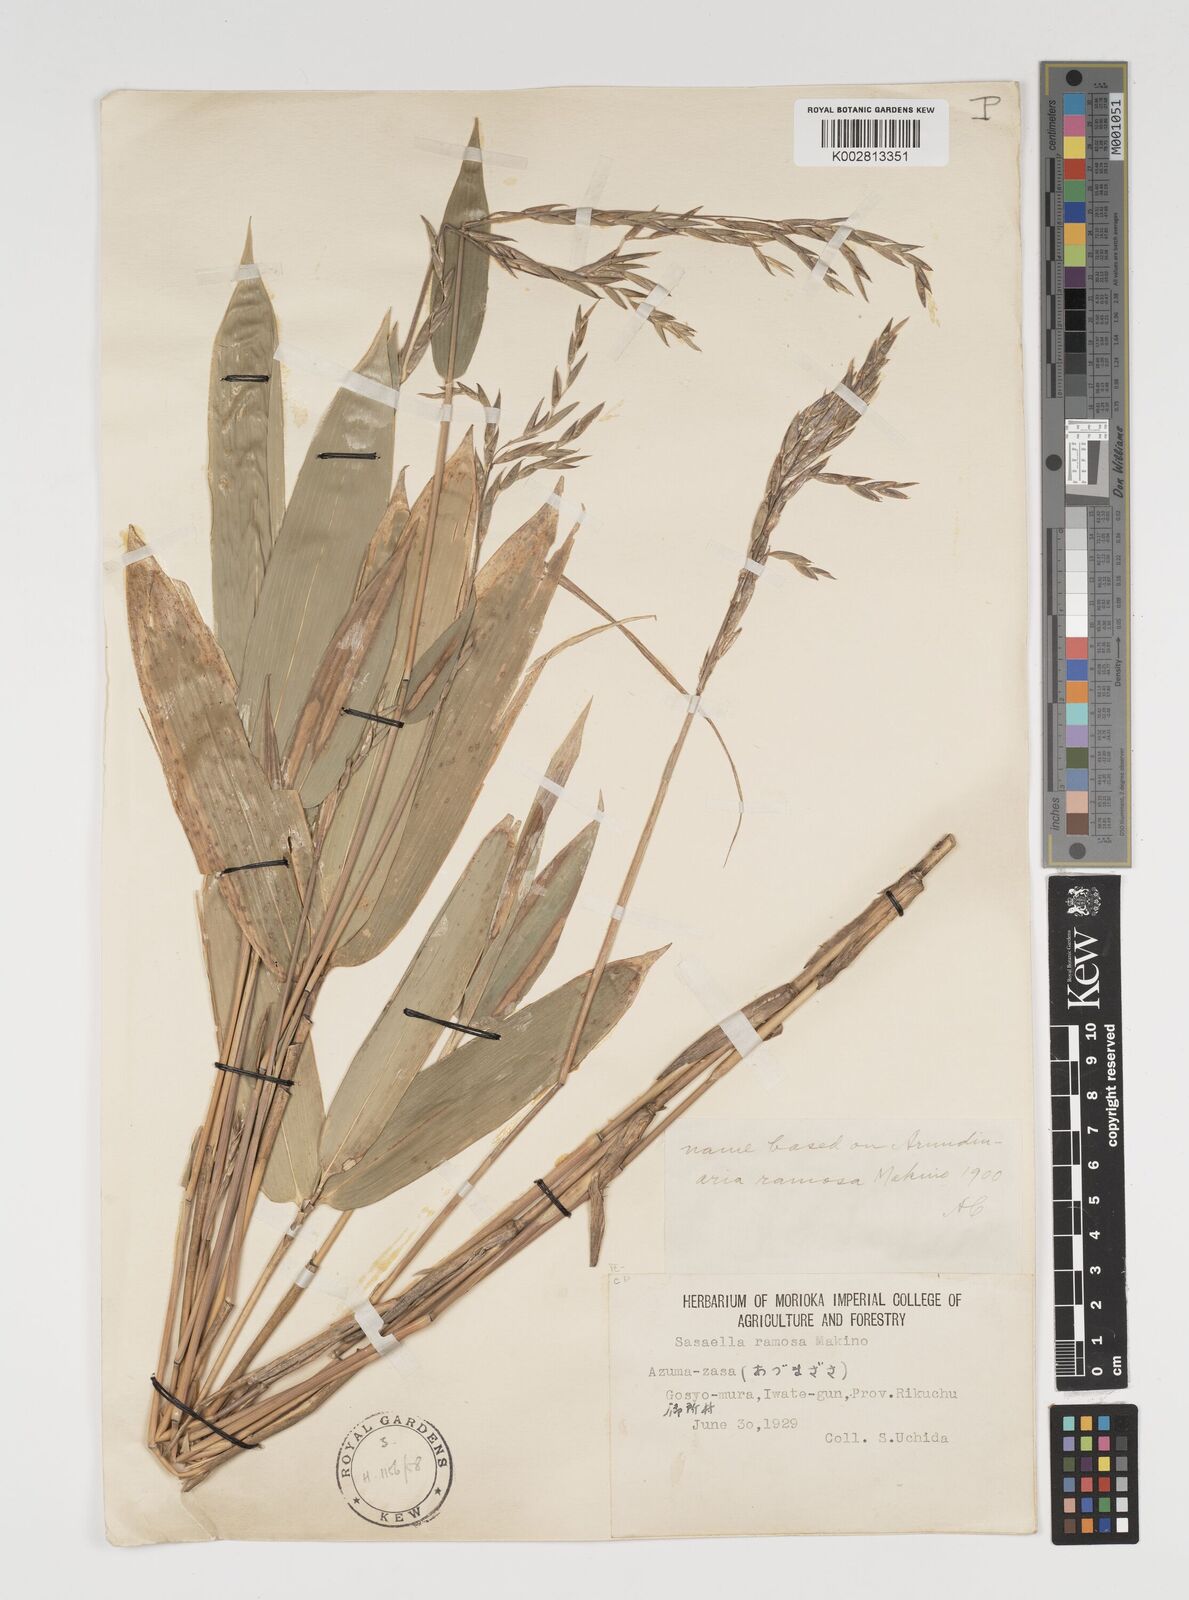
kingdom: Plantae
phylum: Tracheophyta
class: Liliopsida
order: Poales
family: Poaceae
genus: Sasaella
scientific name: Sasaella ramosa
